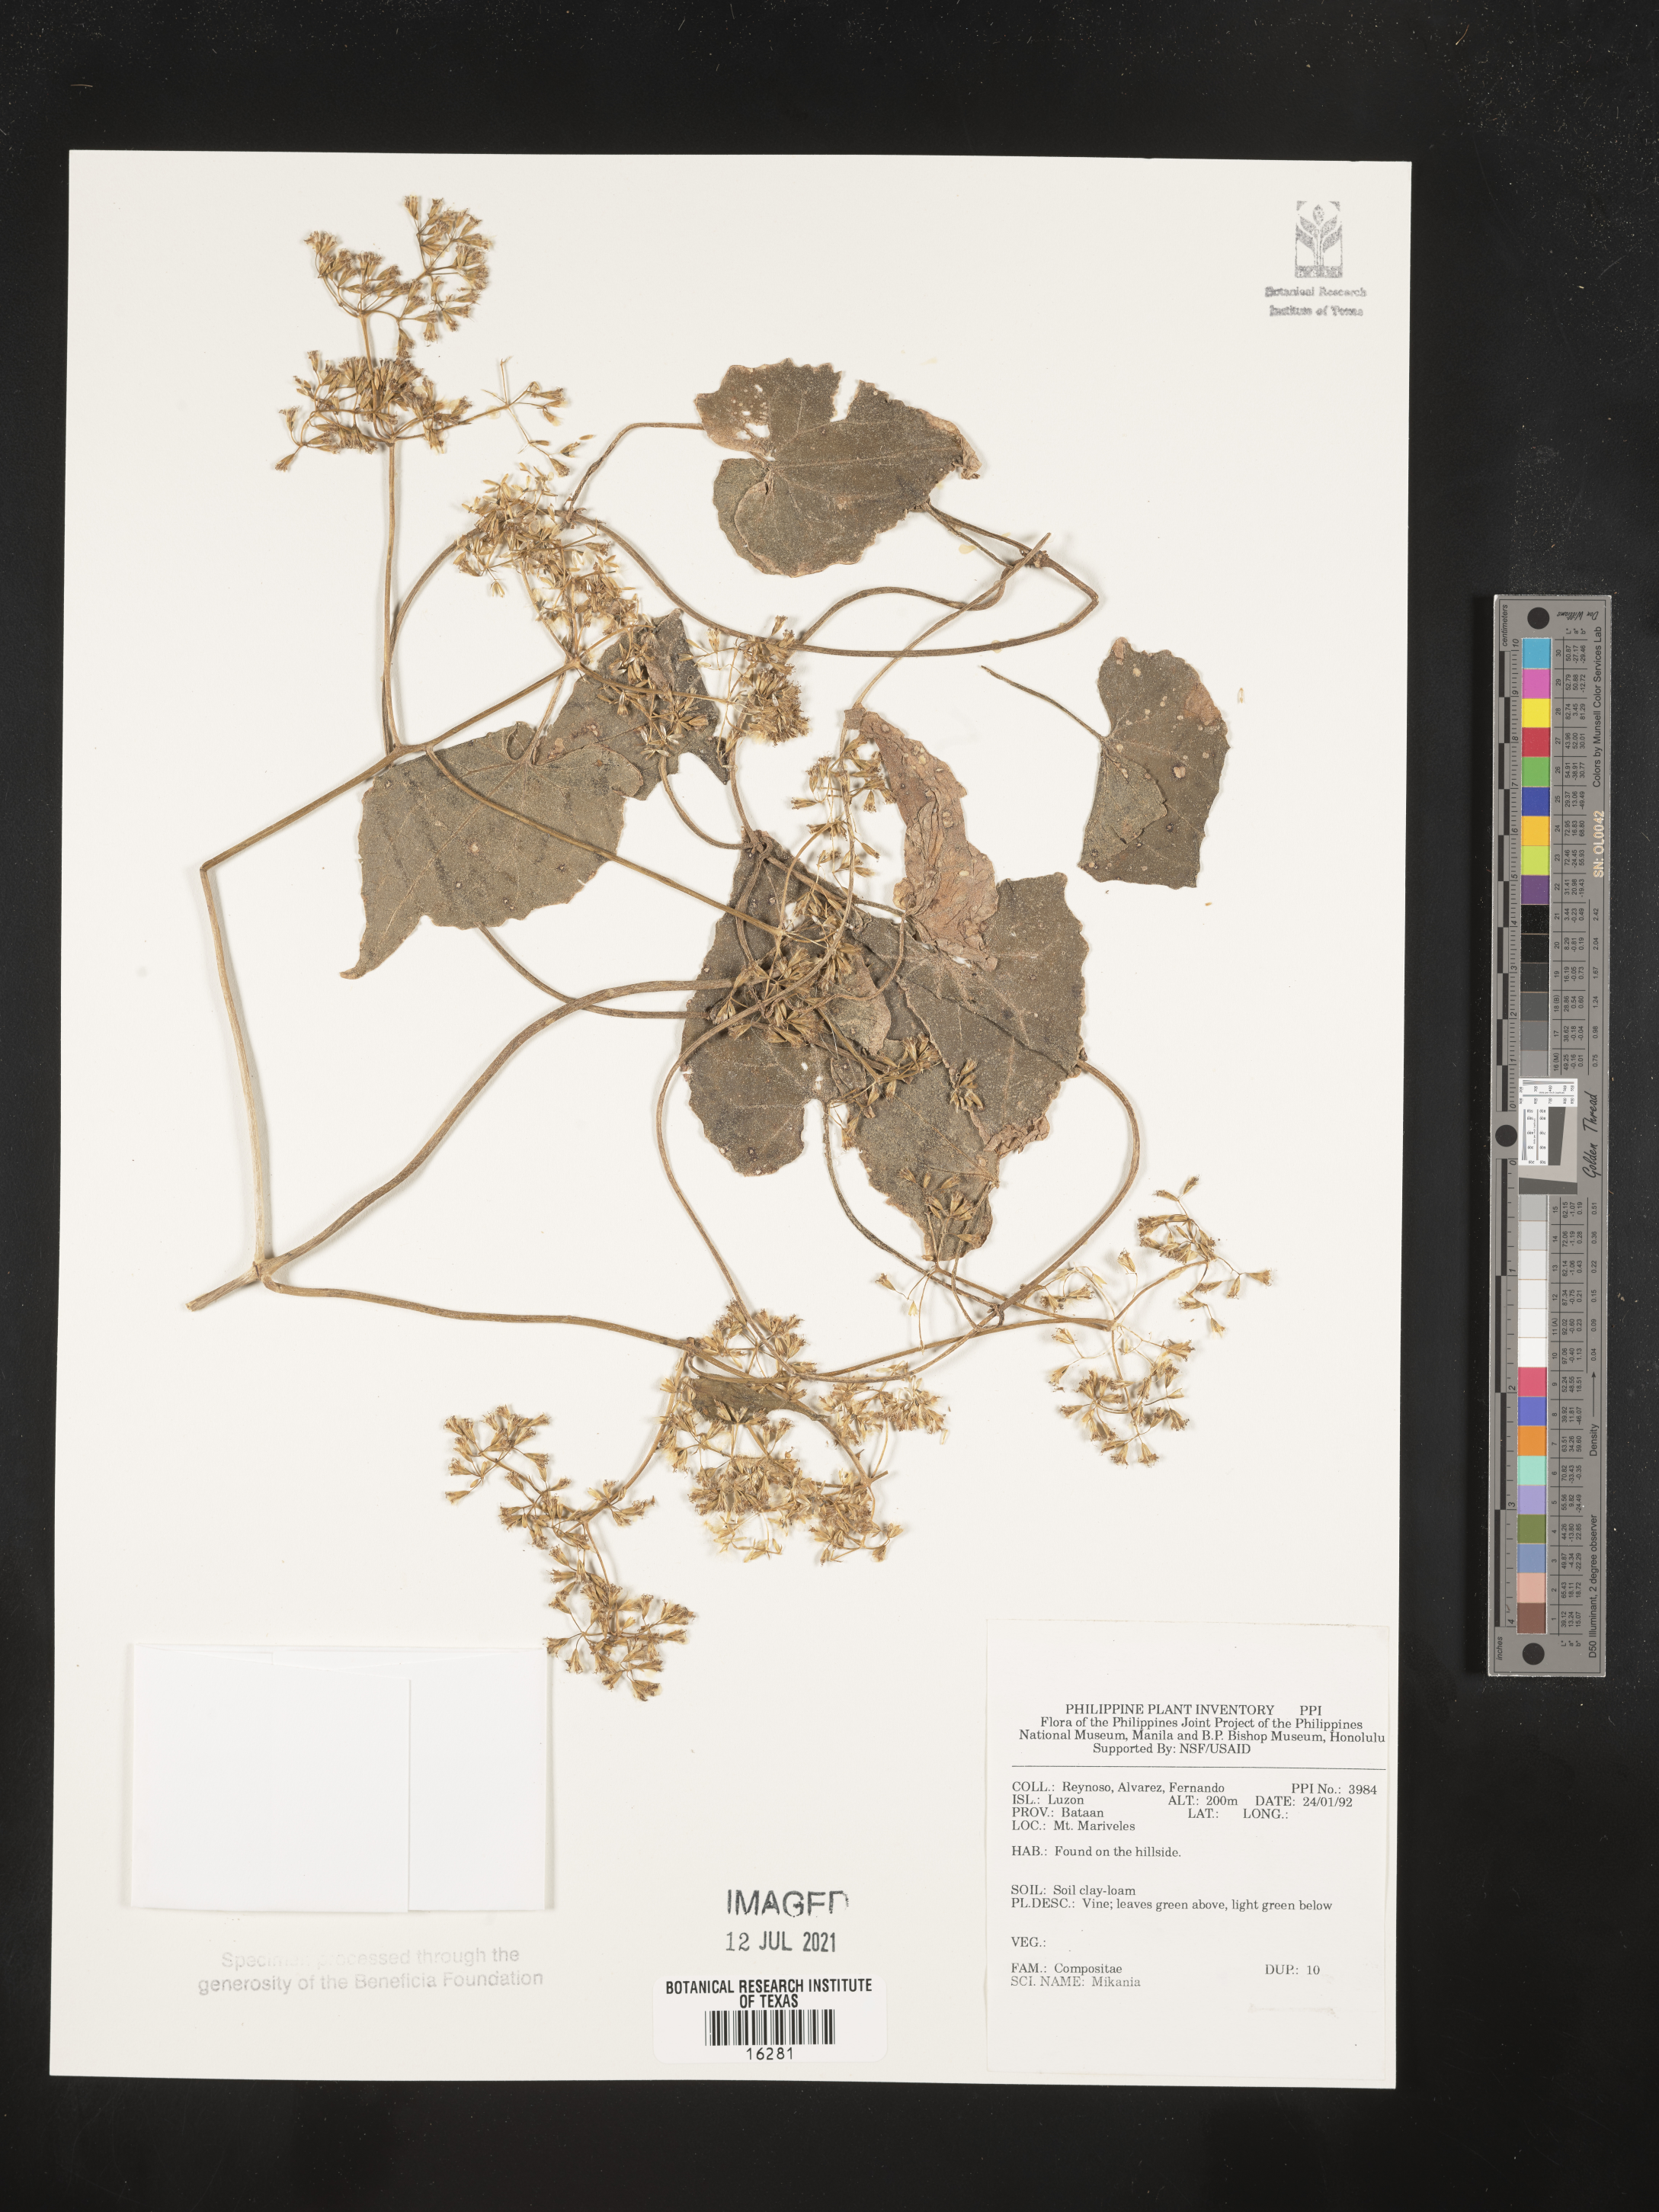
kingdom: Plantae
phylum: Tracheophyta
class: Magnoliopsida
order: Asterales
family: Asteraceae
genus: Mikania
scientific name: Mikania
